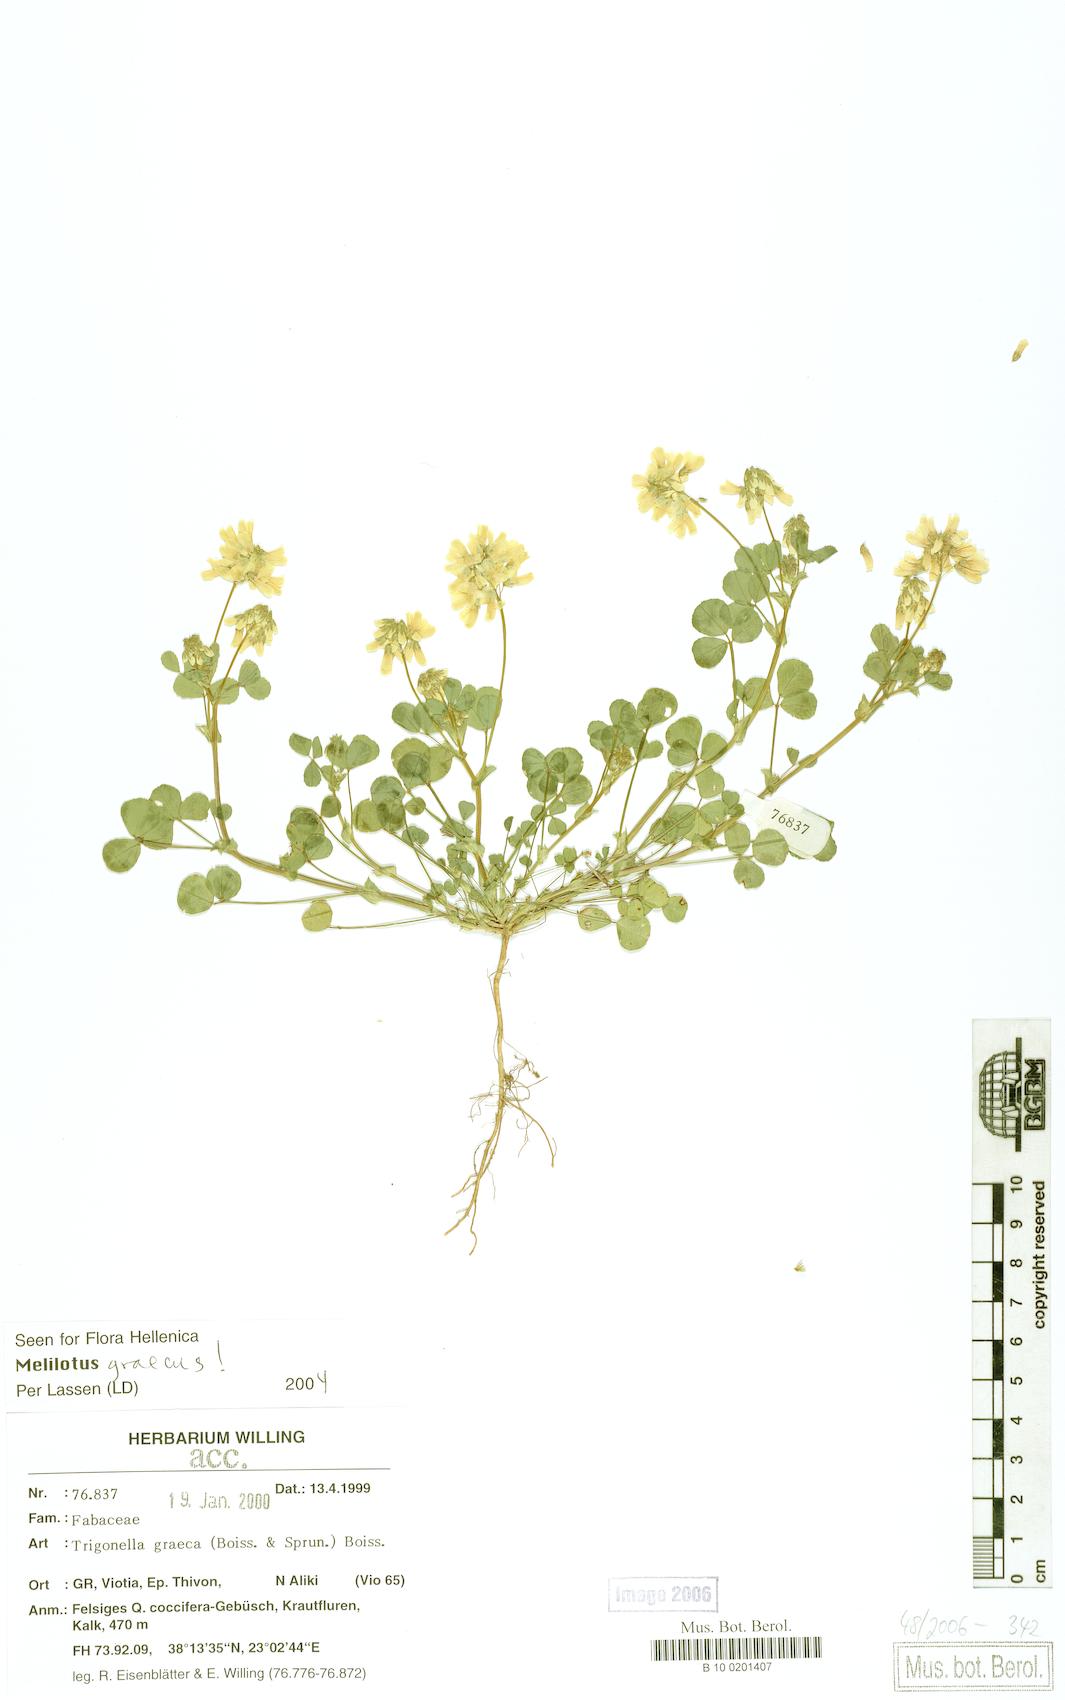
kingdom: Plantae
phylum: Tracheophyta
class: Magnoliopsida
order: Fabales
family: Fabaceae
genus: Trigonella
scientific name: Trigonella graeca
